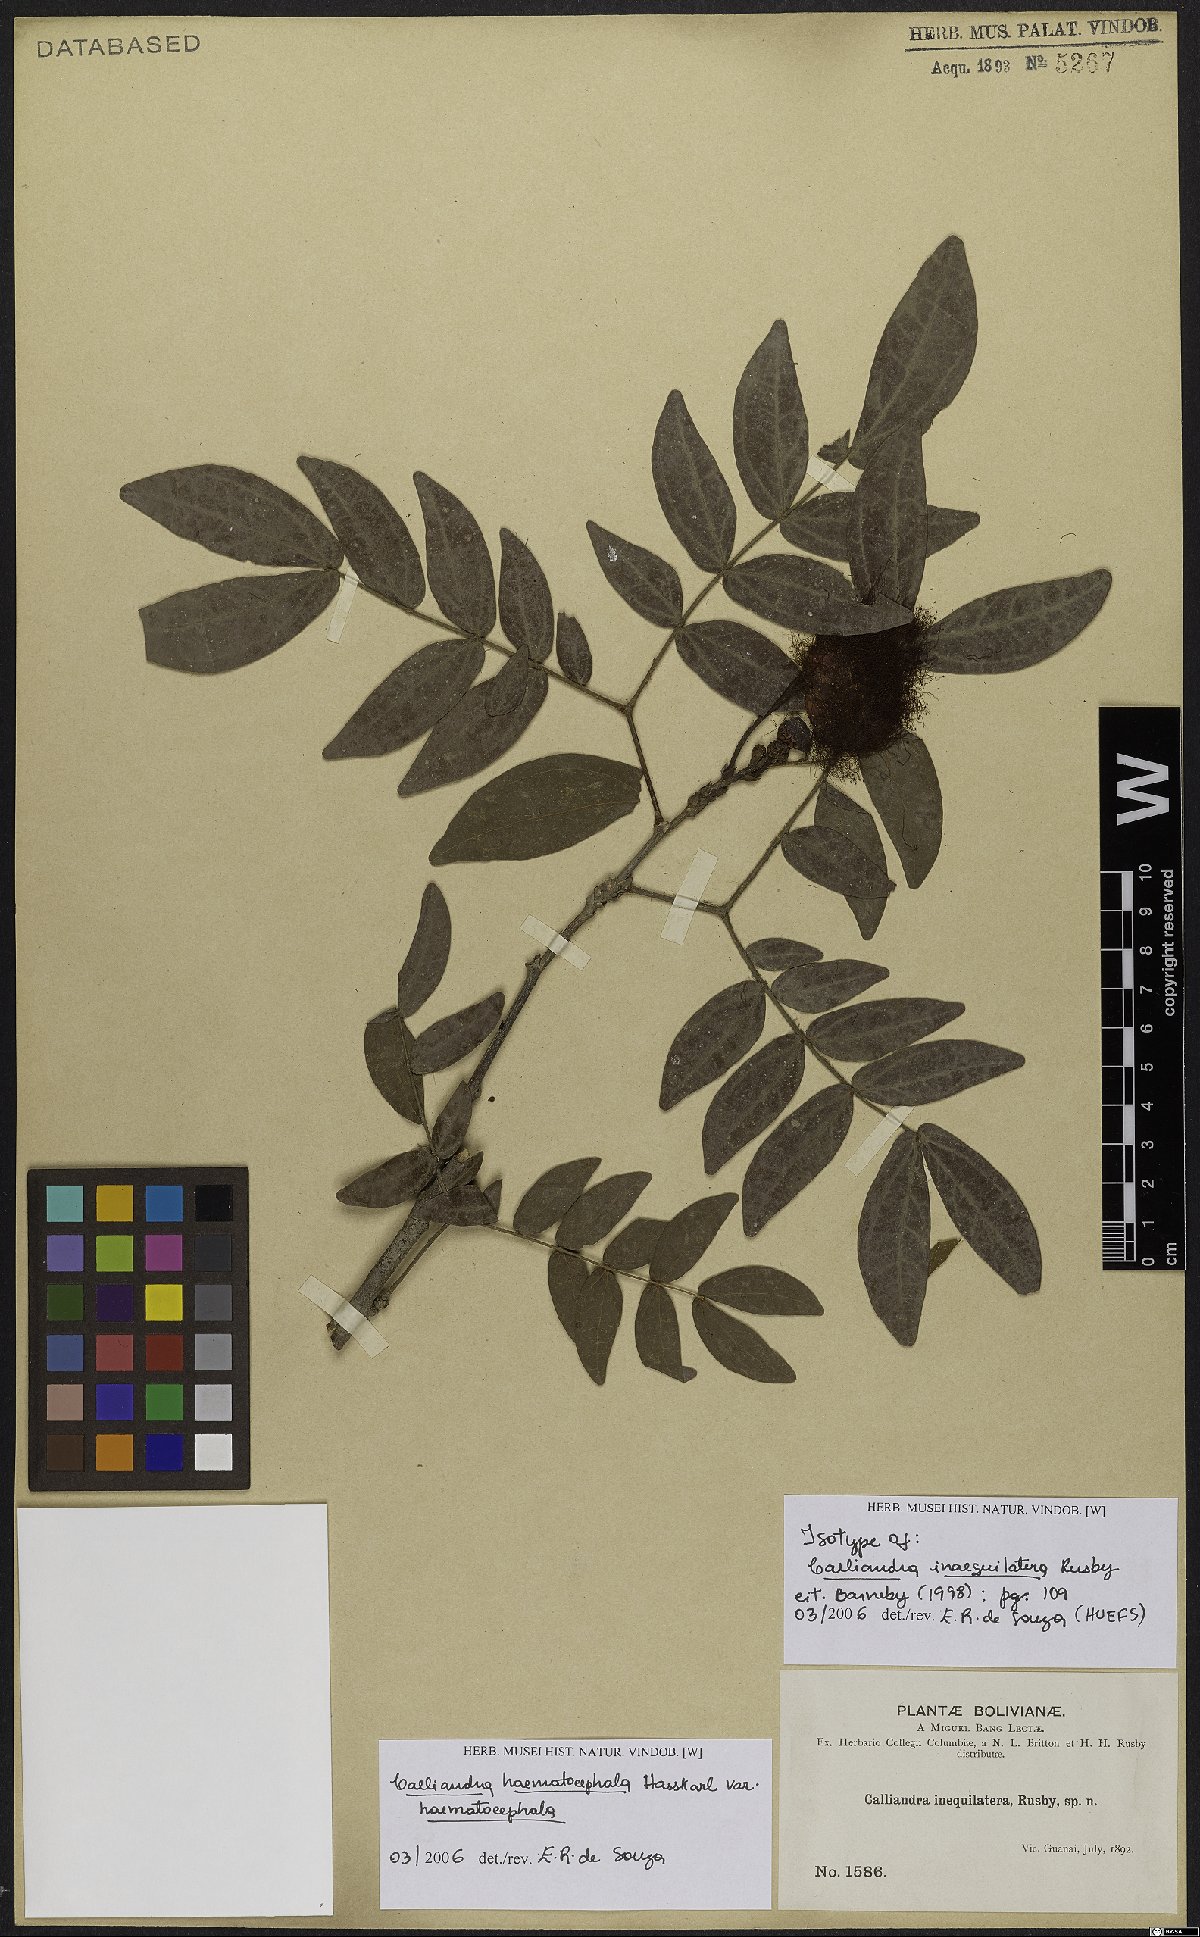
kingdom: Plantae
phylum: Tracheophyta
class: Magnoliopsida
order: Fabales
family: Fabaceae
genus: Calliandra
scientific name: Calliandra haematocephala
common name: Blood red tassel flower
